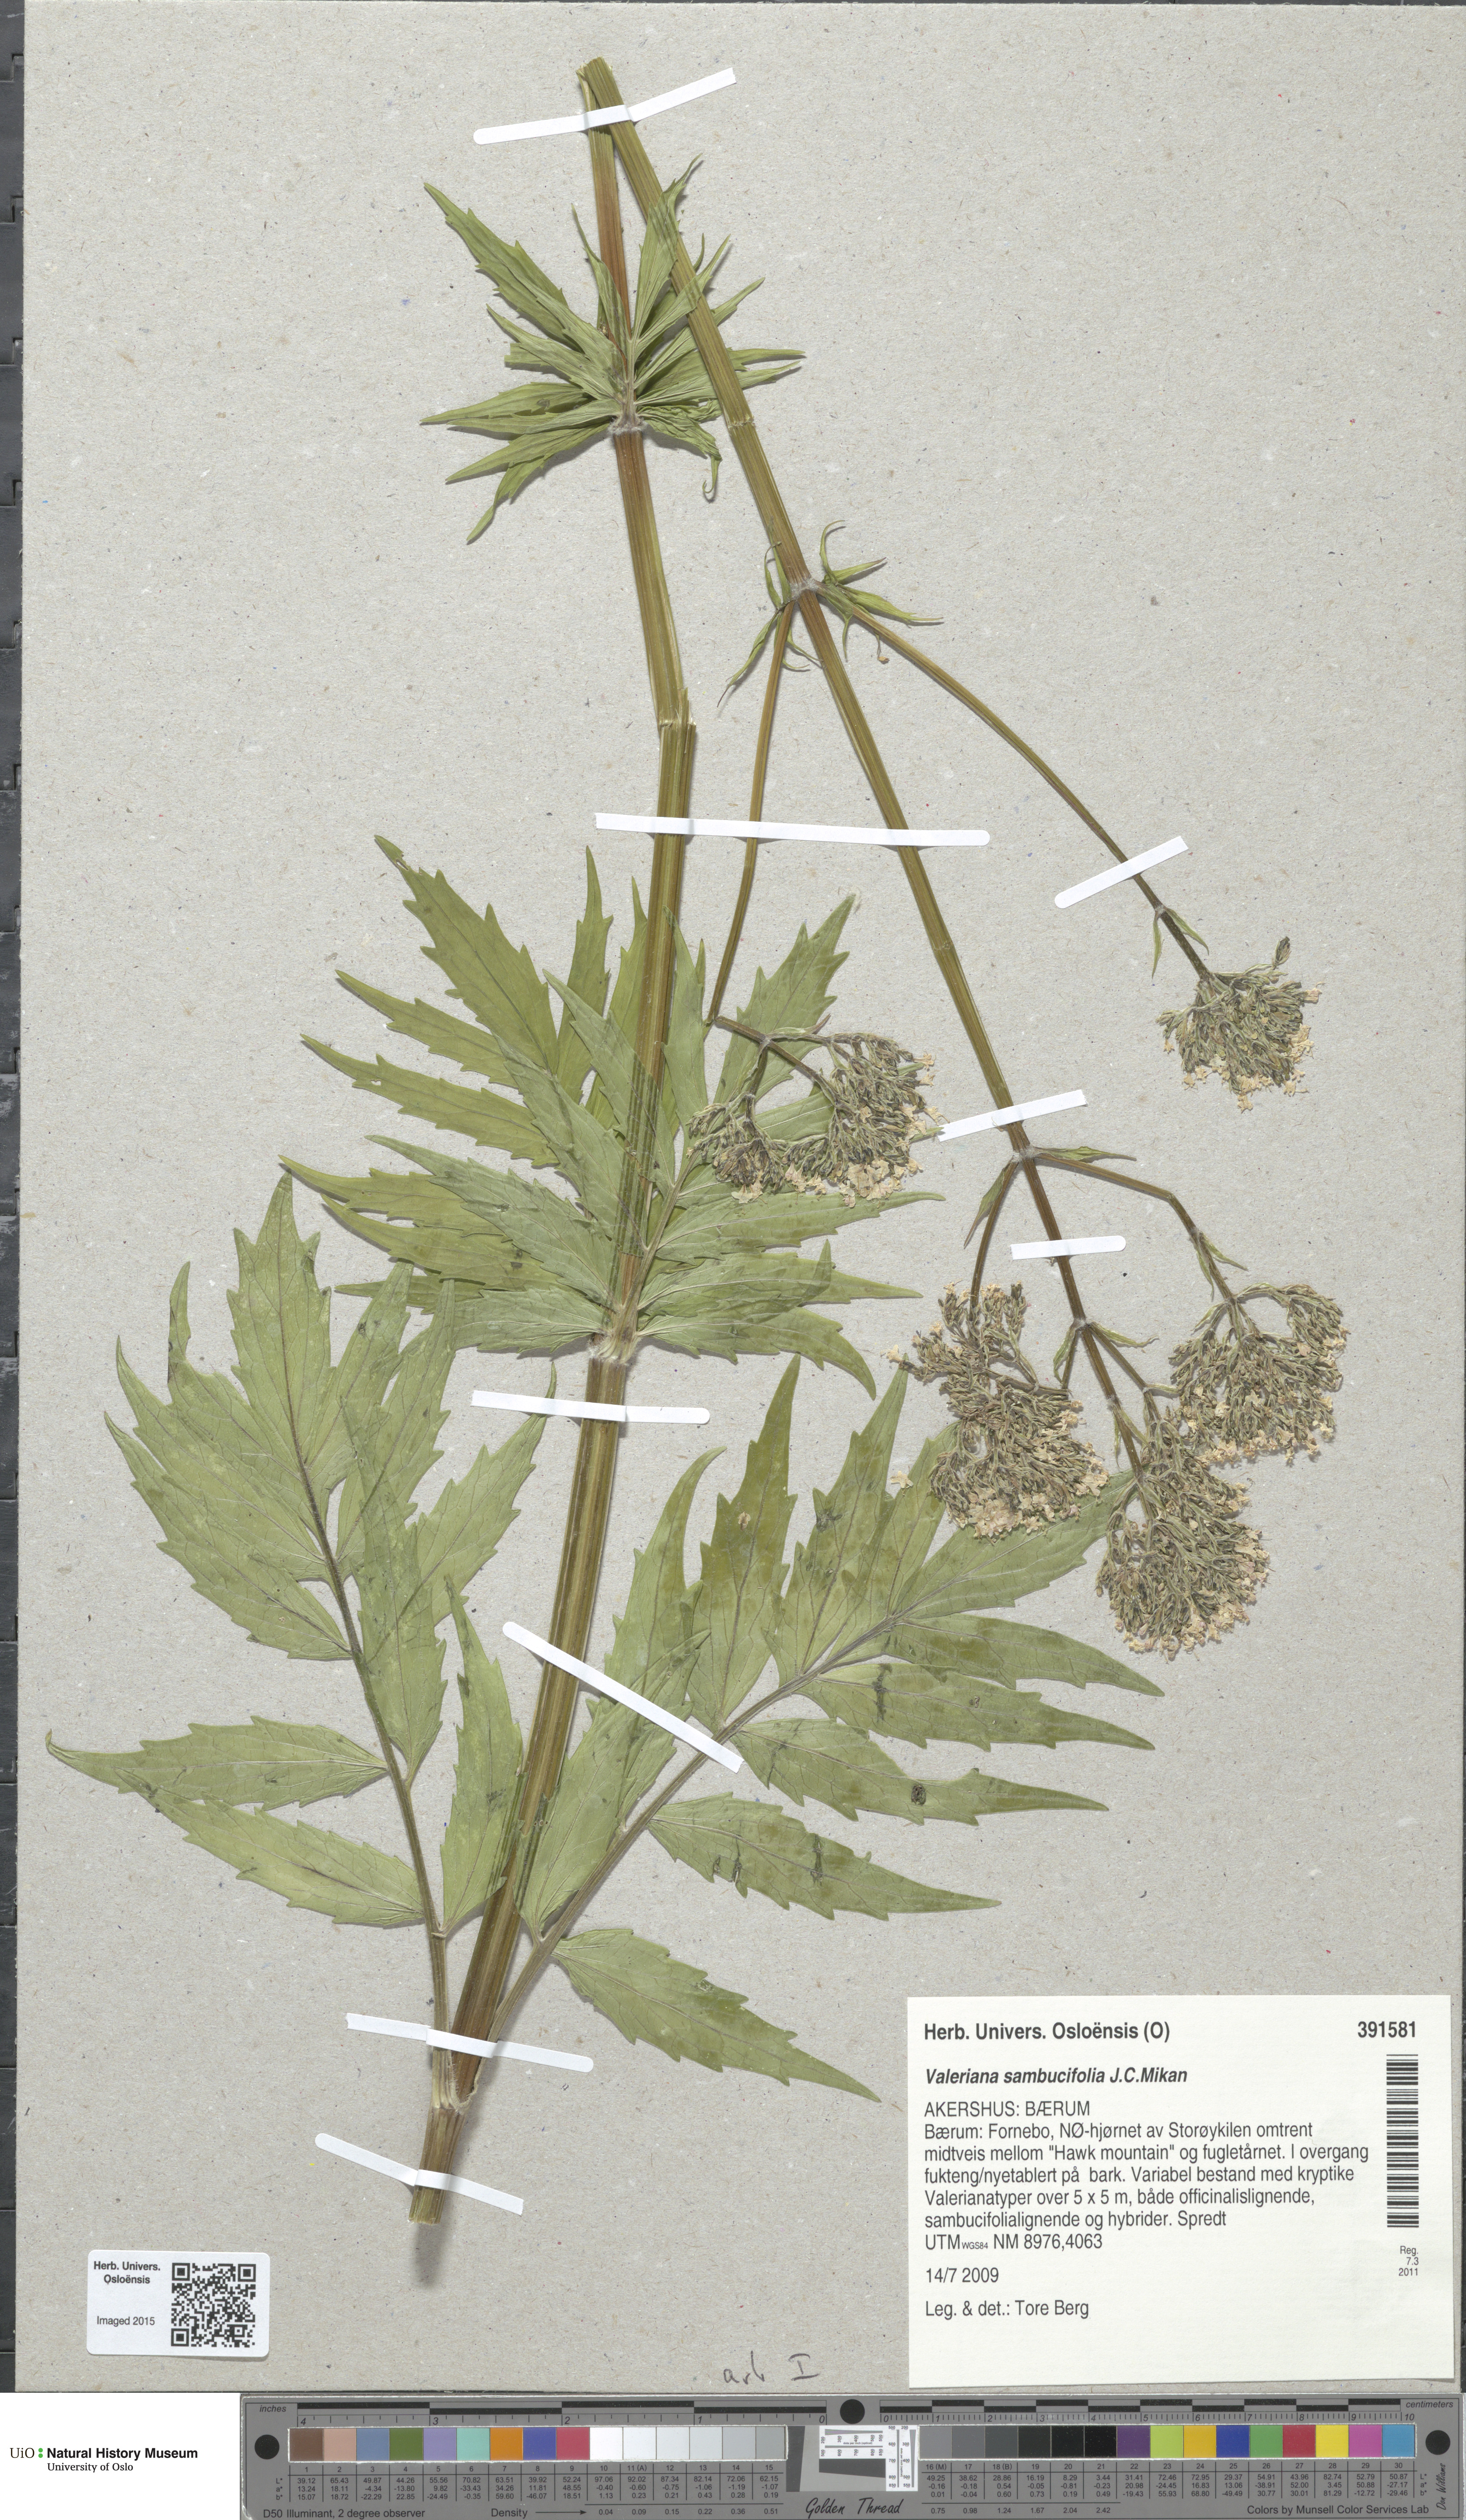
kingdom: Plantae
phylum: Tracheophyta
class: Magnoliopsida
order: Dipsacales
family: Caprifoliaceae
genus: Valeriana
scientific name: Valeriana excelsa
